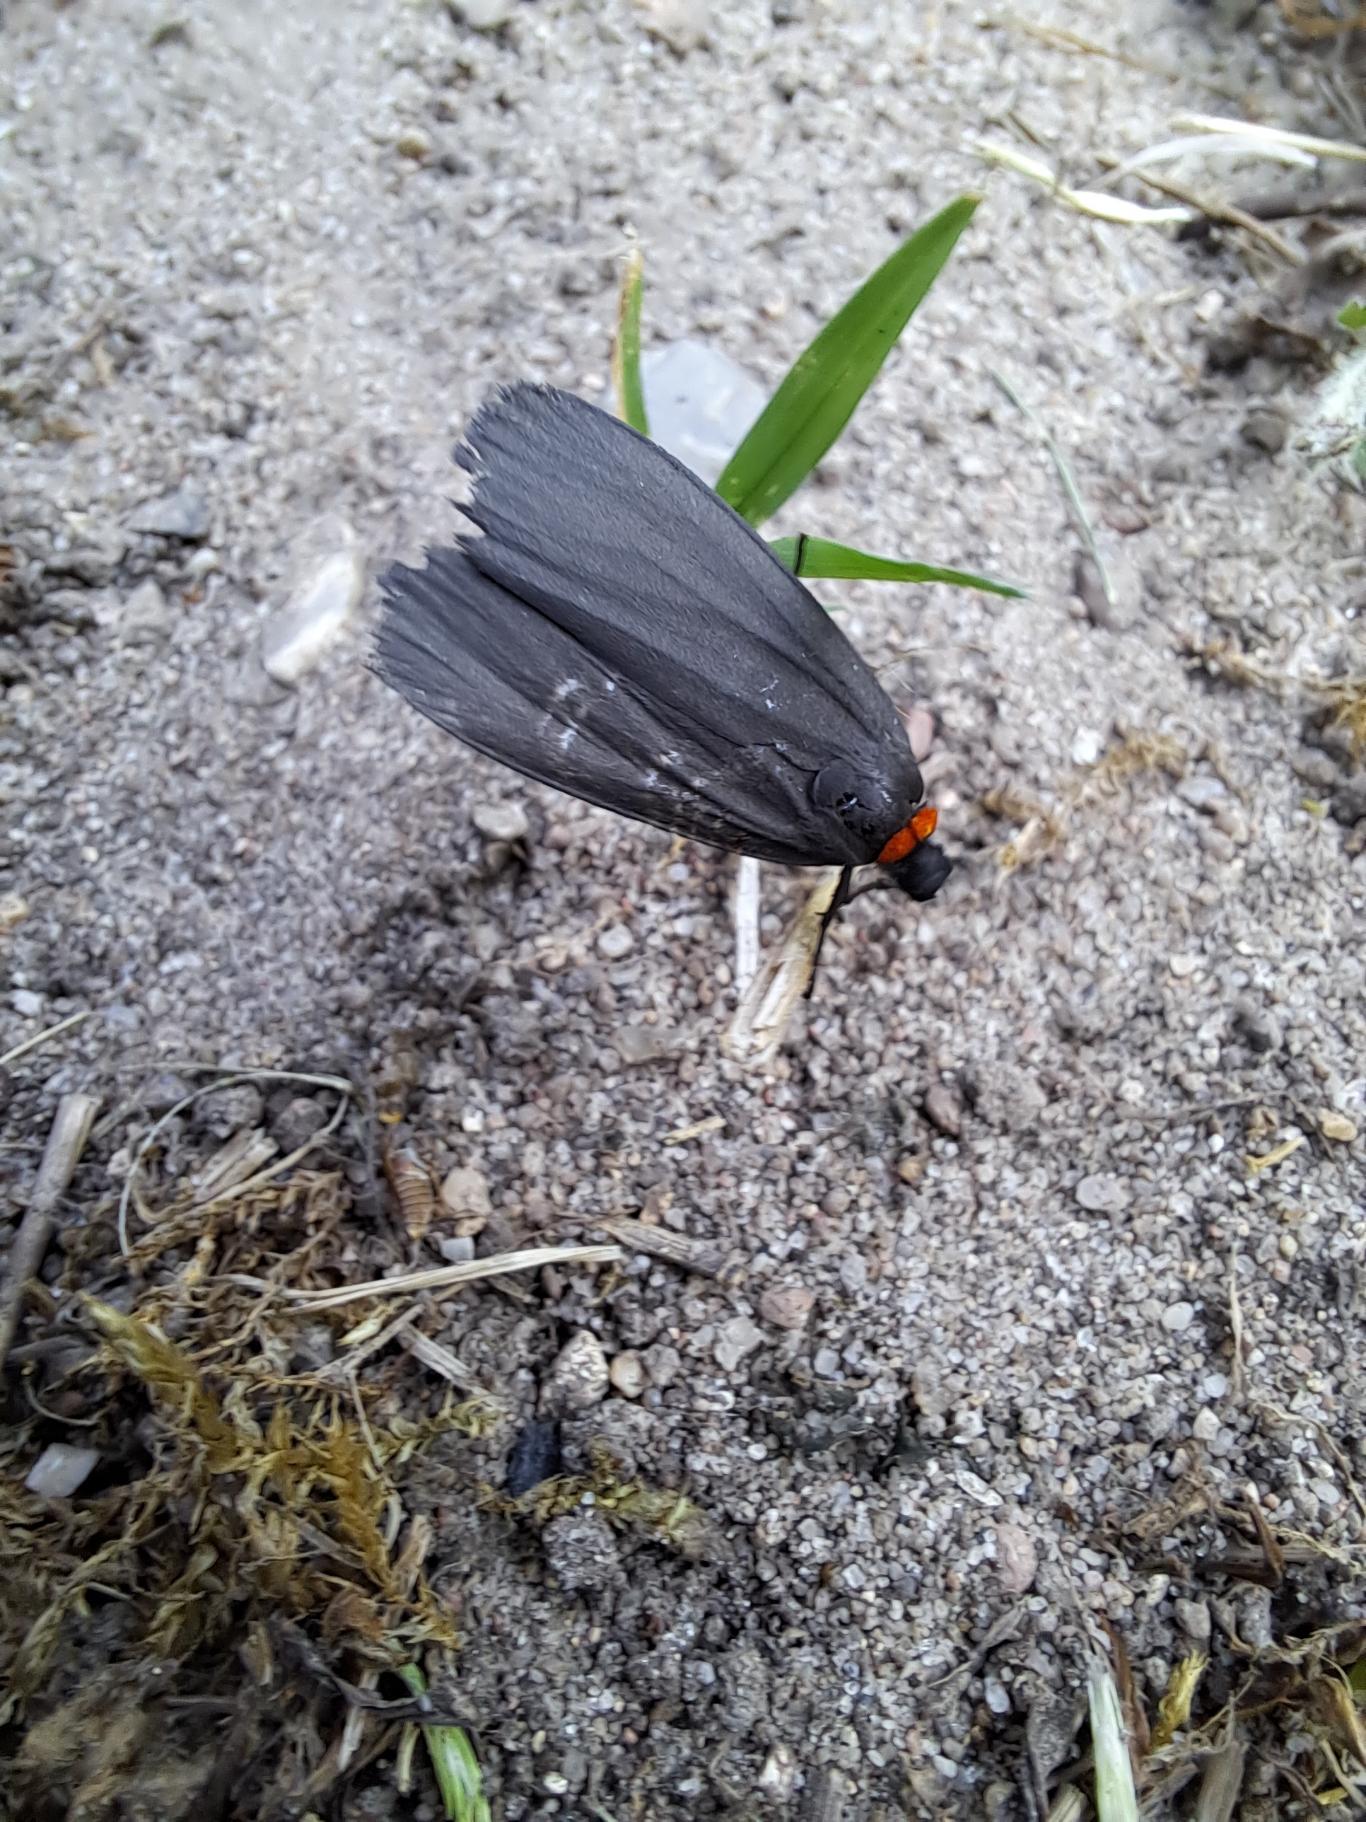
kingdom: Animalia
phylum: Arthropoda
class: Insecta
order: Lepidoptera
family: Erebidae
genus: Atolmis
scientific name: Atolmis rubricollis
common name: Blodnakke
